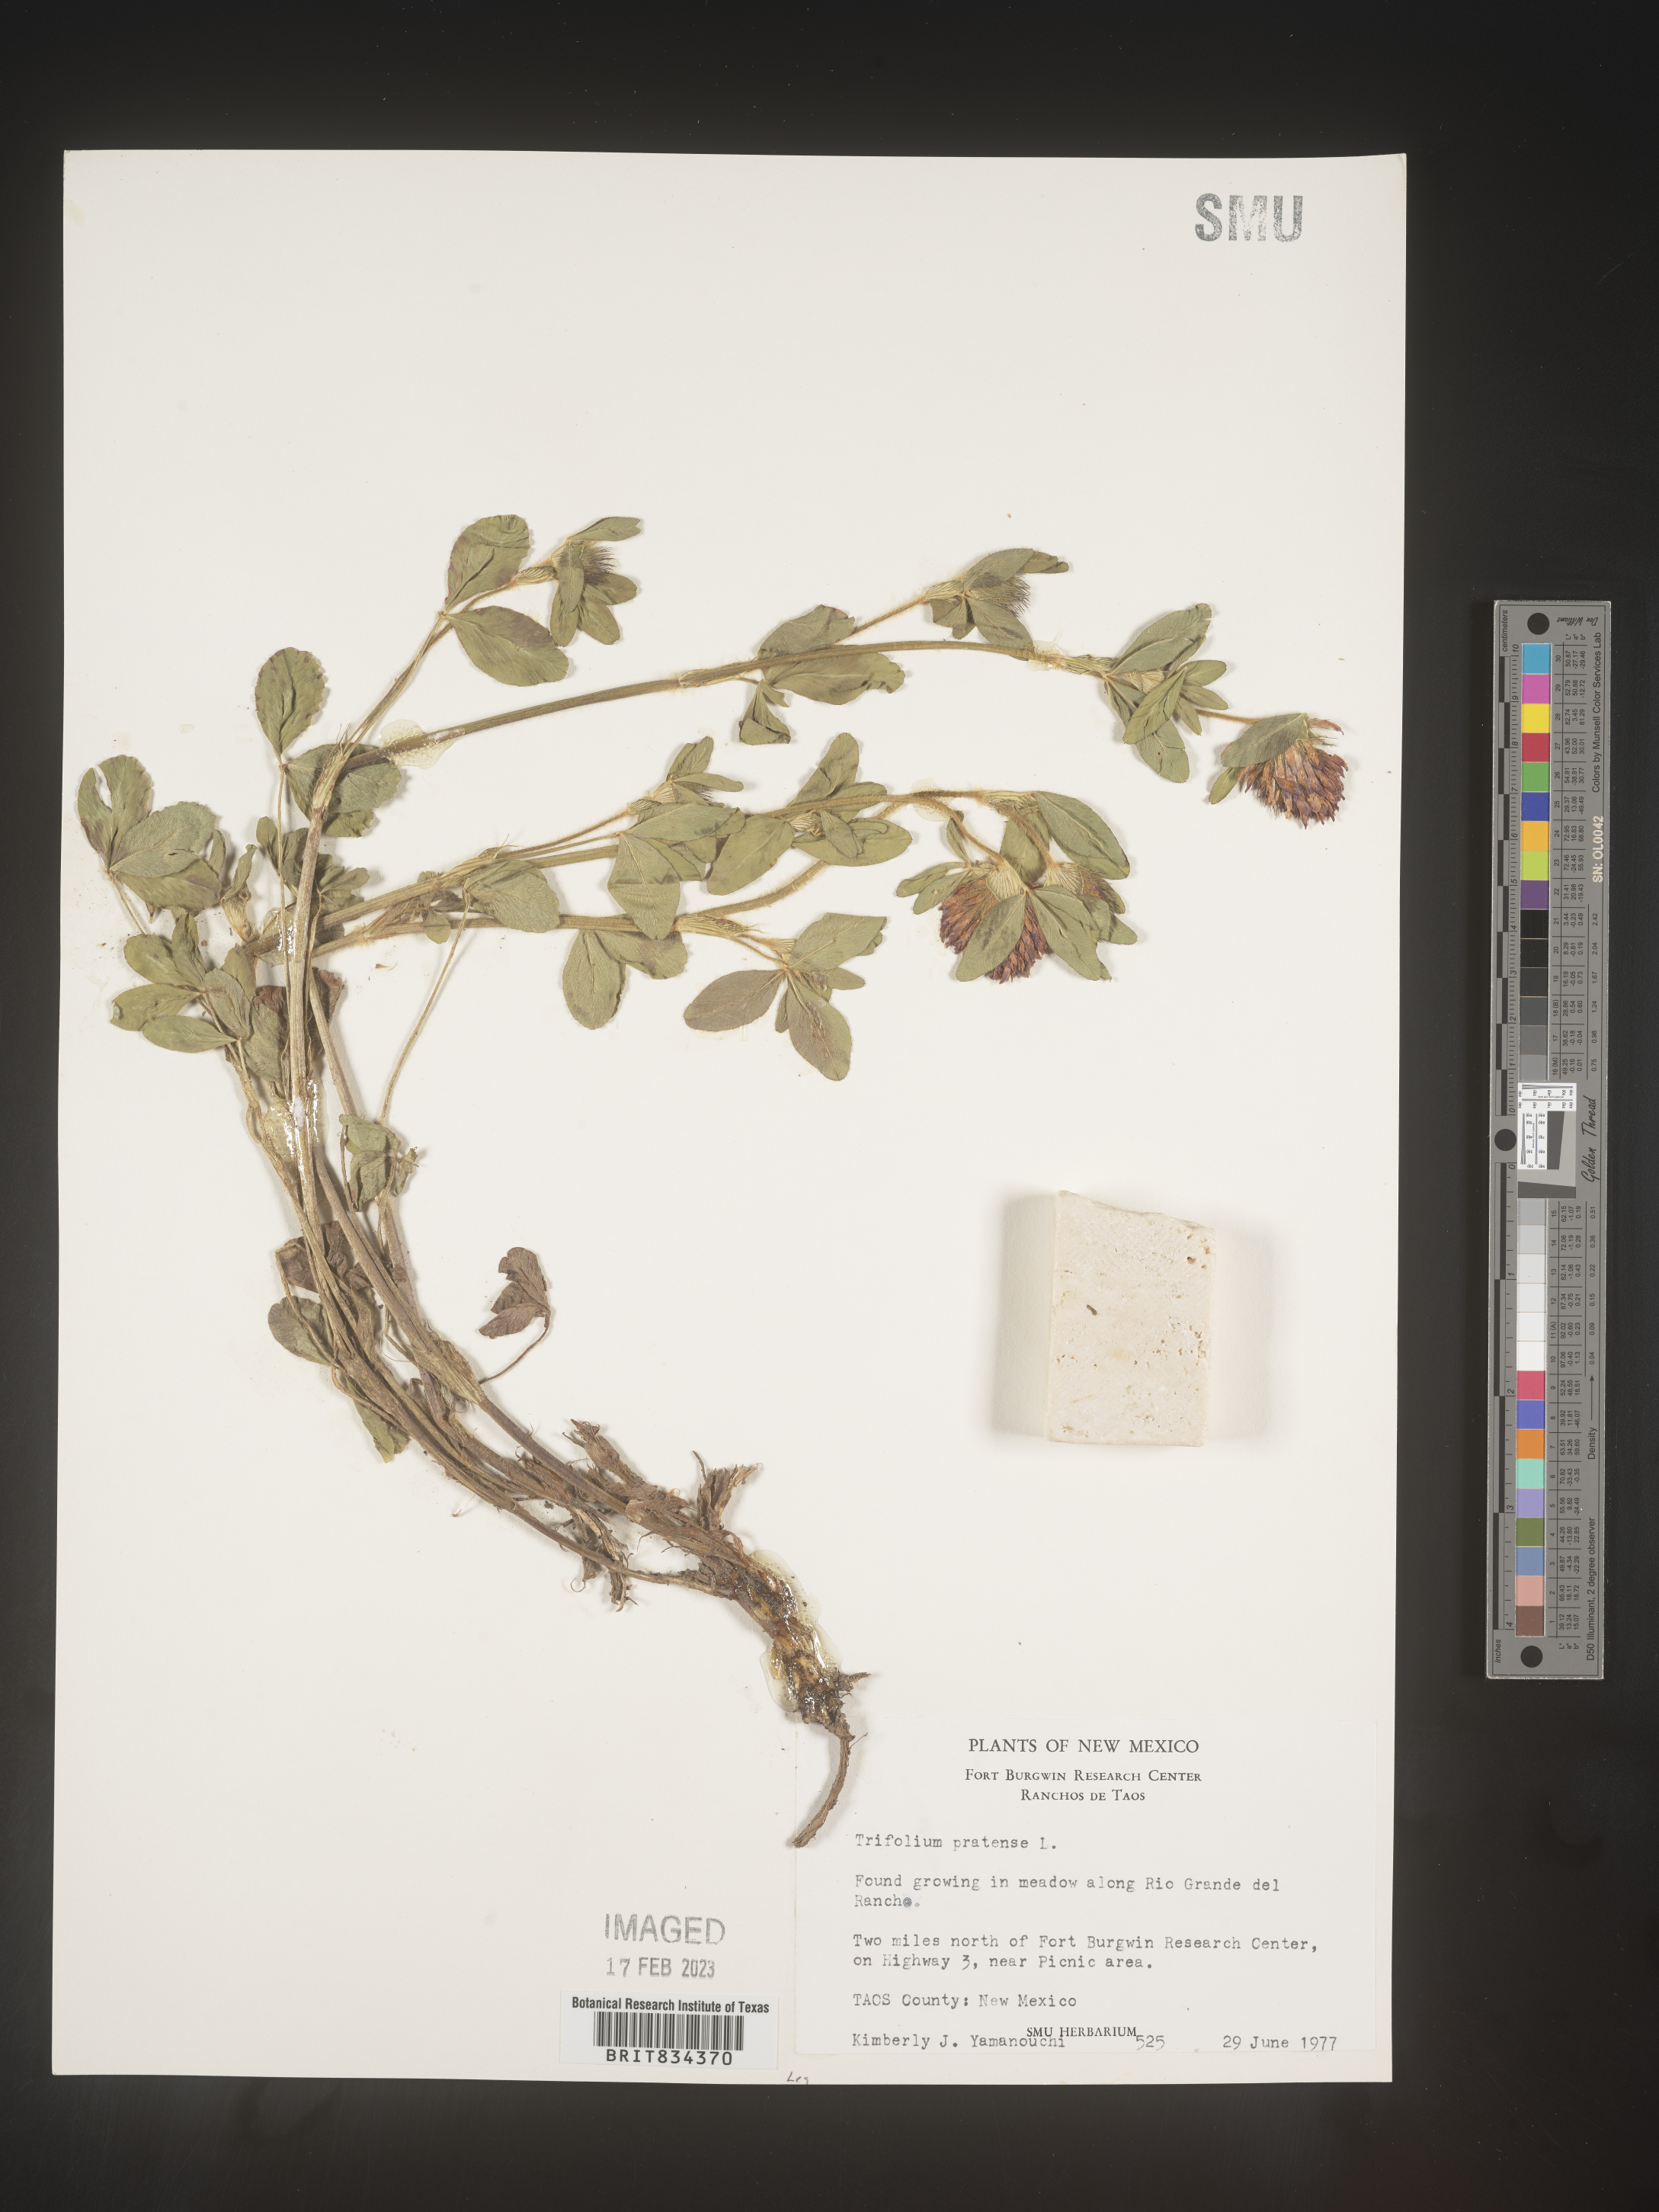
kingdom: Plantae
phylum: Tracheophyta
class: Magnoliopsida
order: Fabales
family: Fabaceae
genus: Trifolium
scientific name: Trifolium pratense
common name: Red clover
